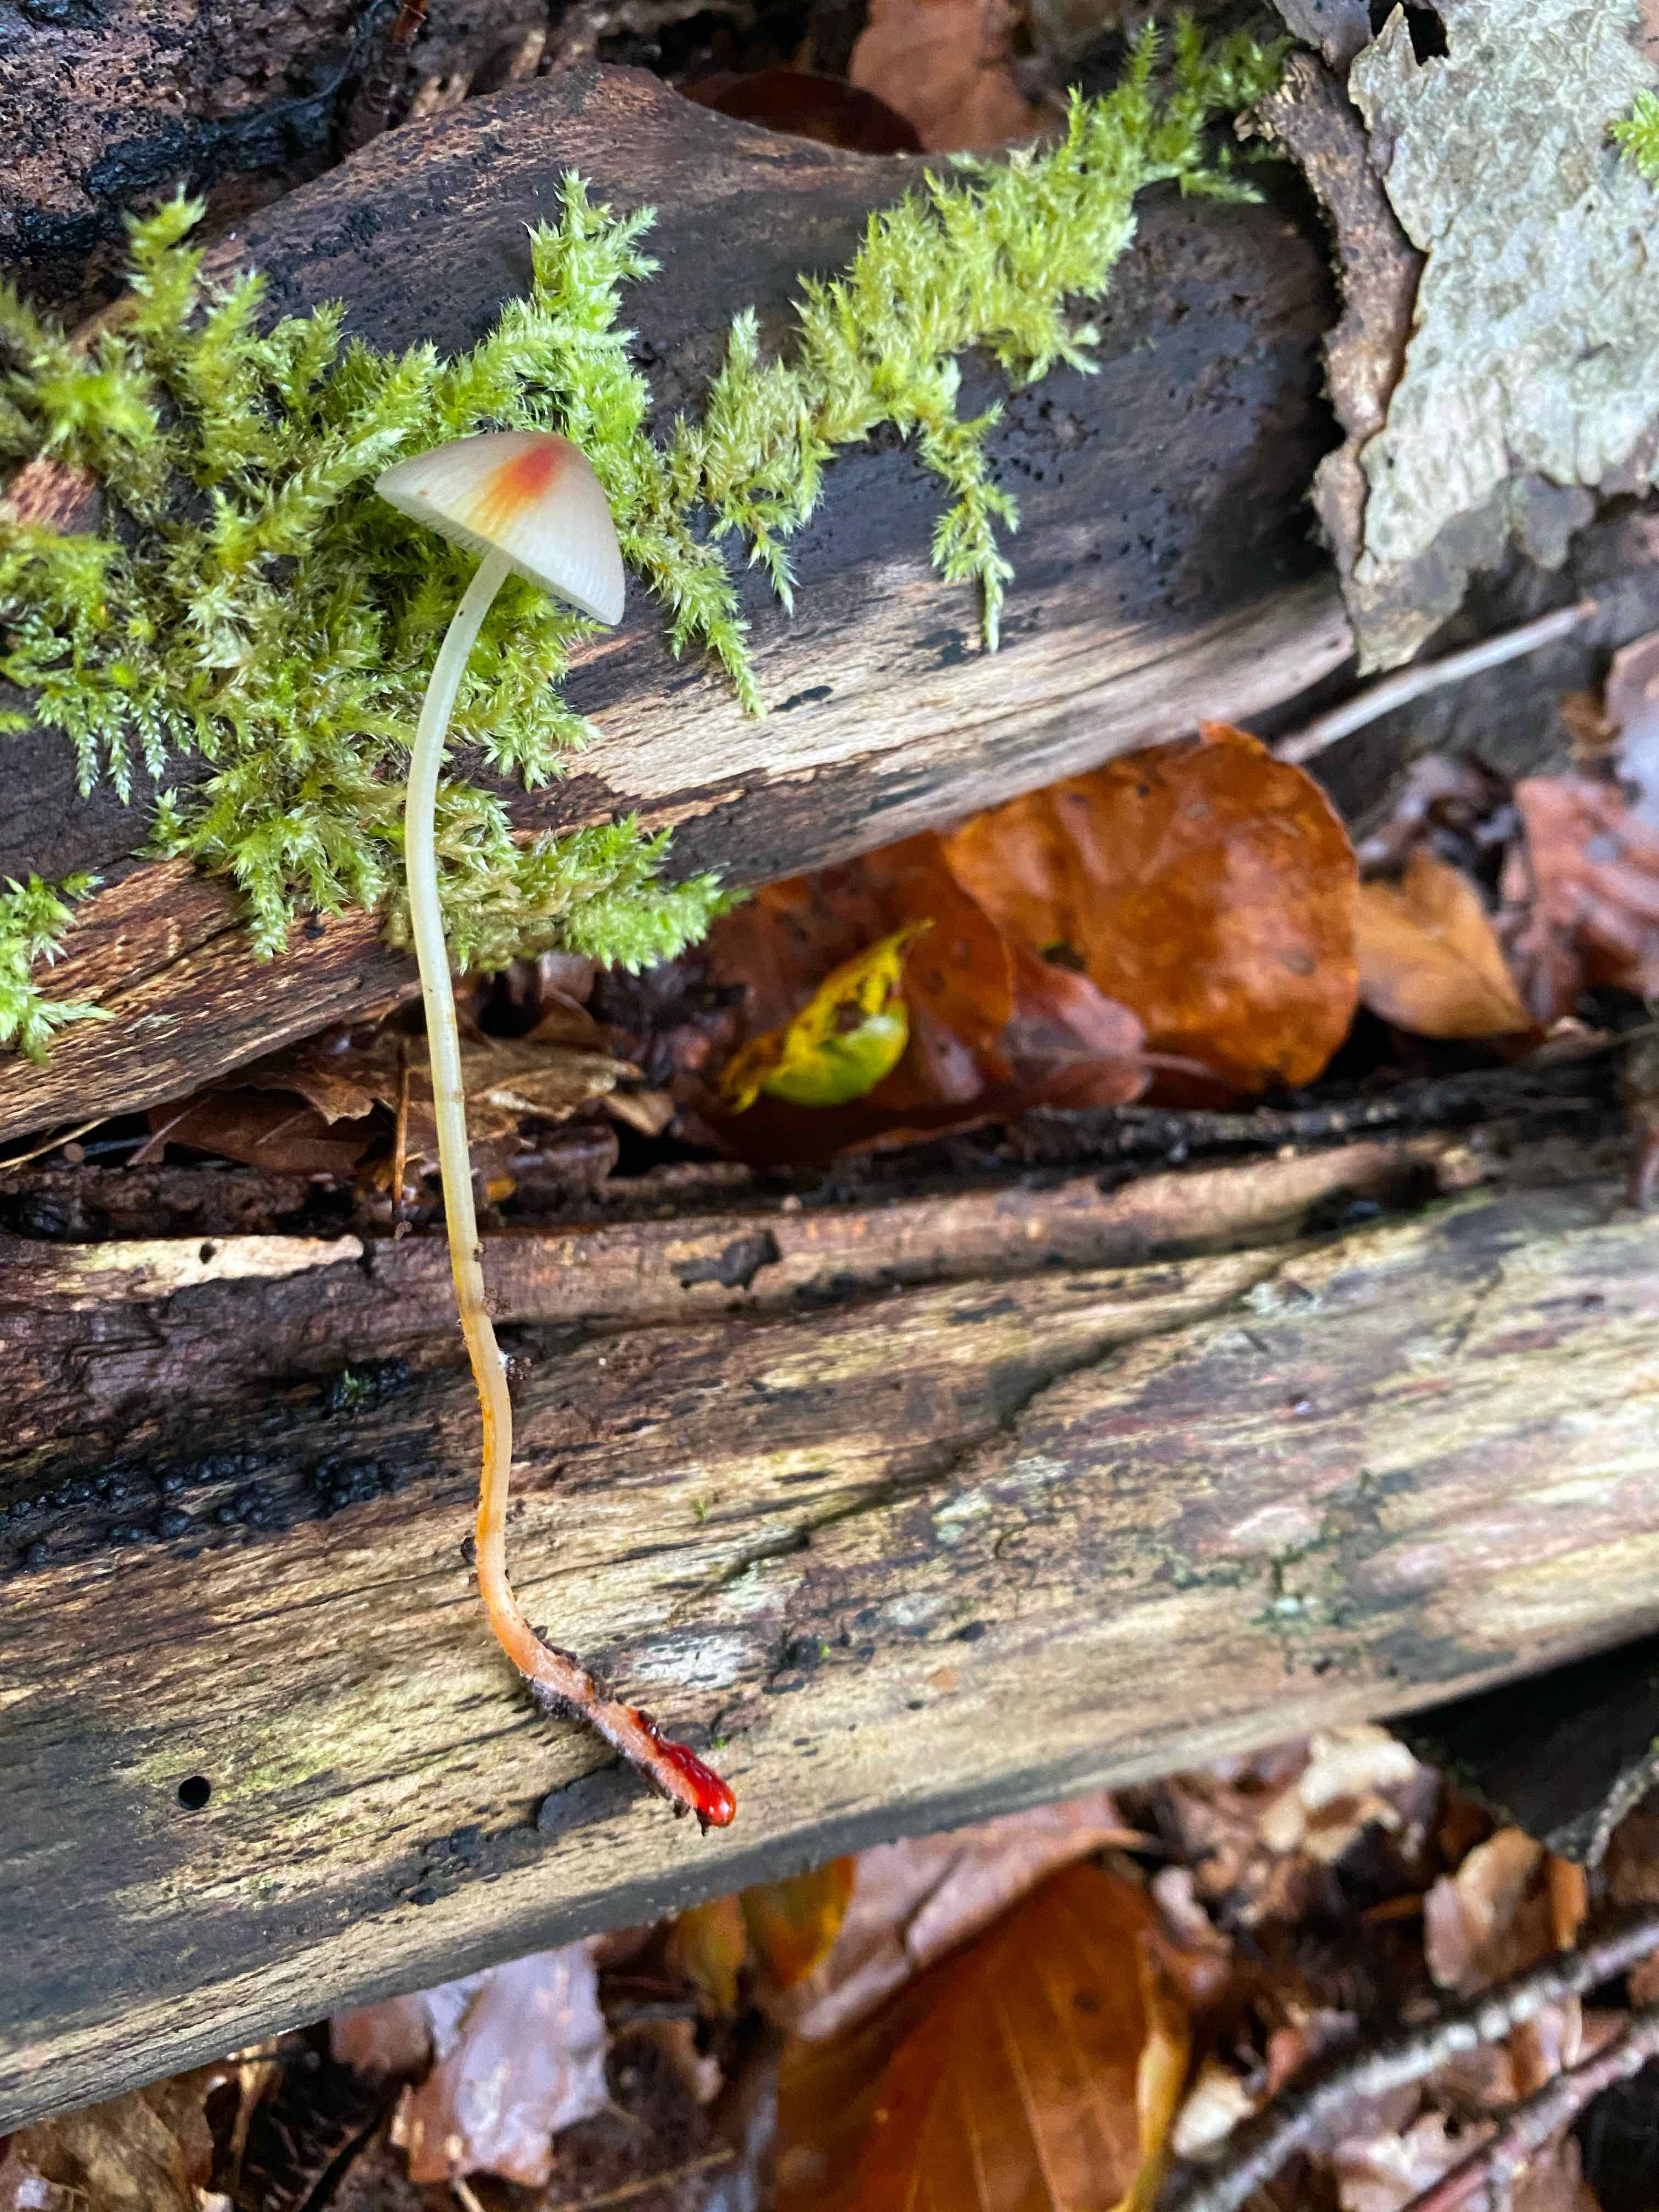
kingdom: Fungi
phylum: Basidiomycota
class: Agaricomycetes
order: Agaricales
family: Mycenaceae
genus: Mycena
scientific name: Mycena crocata
